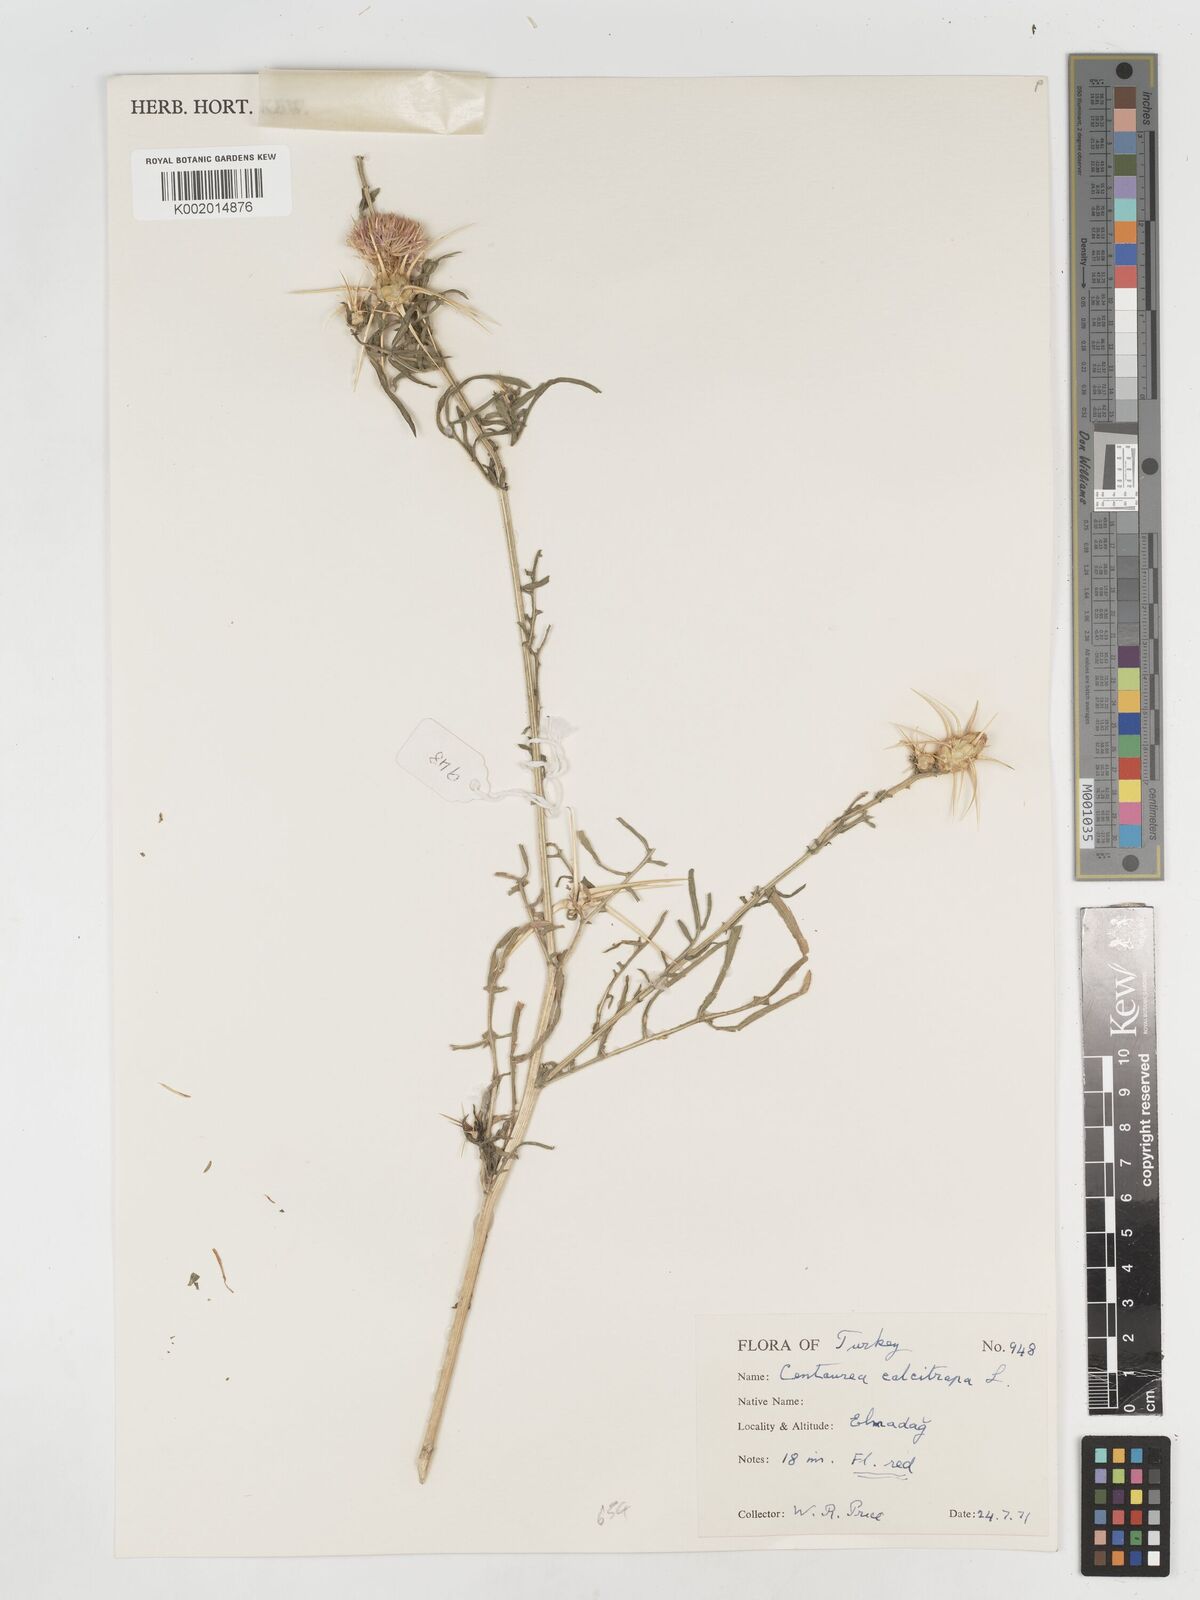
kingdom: Plantae
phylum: Tracheophyta
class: Magnoliopsida
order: Asterales
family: Asteraceae
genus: Centaurea
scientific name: Centaurea iberica
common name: Iberian knapweed
